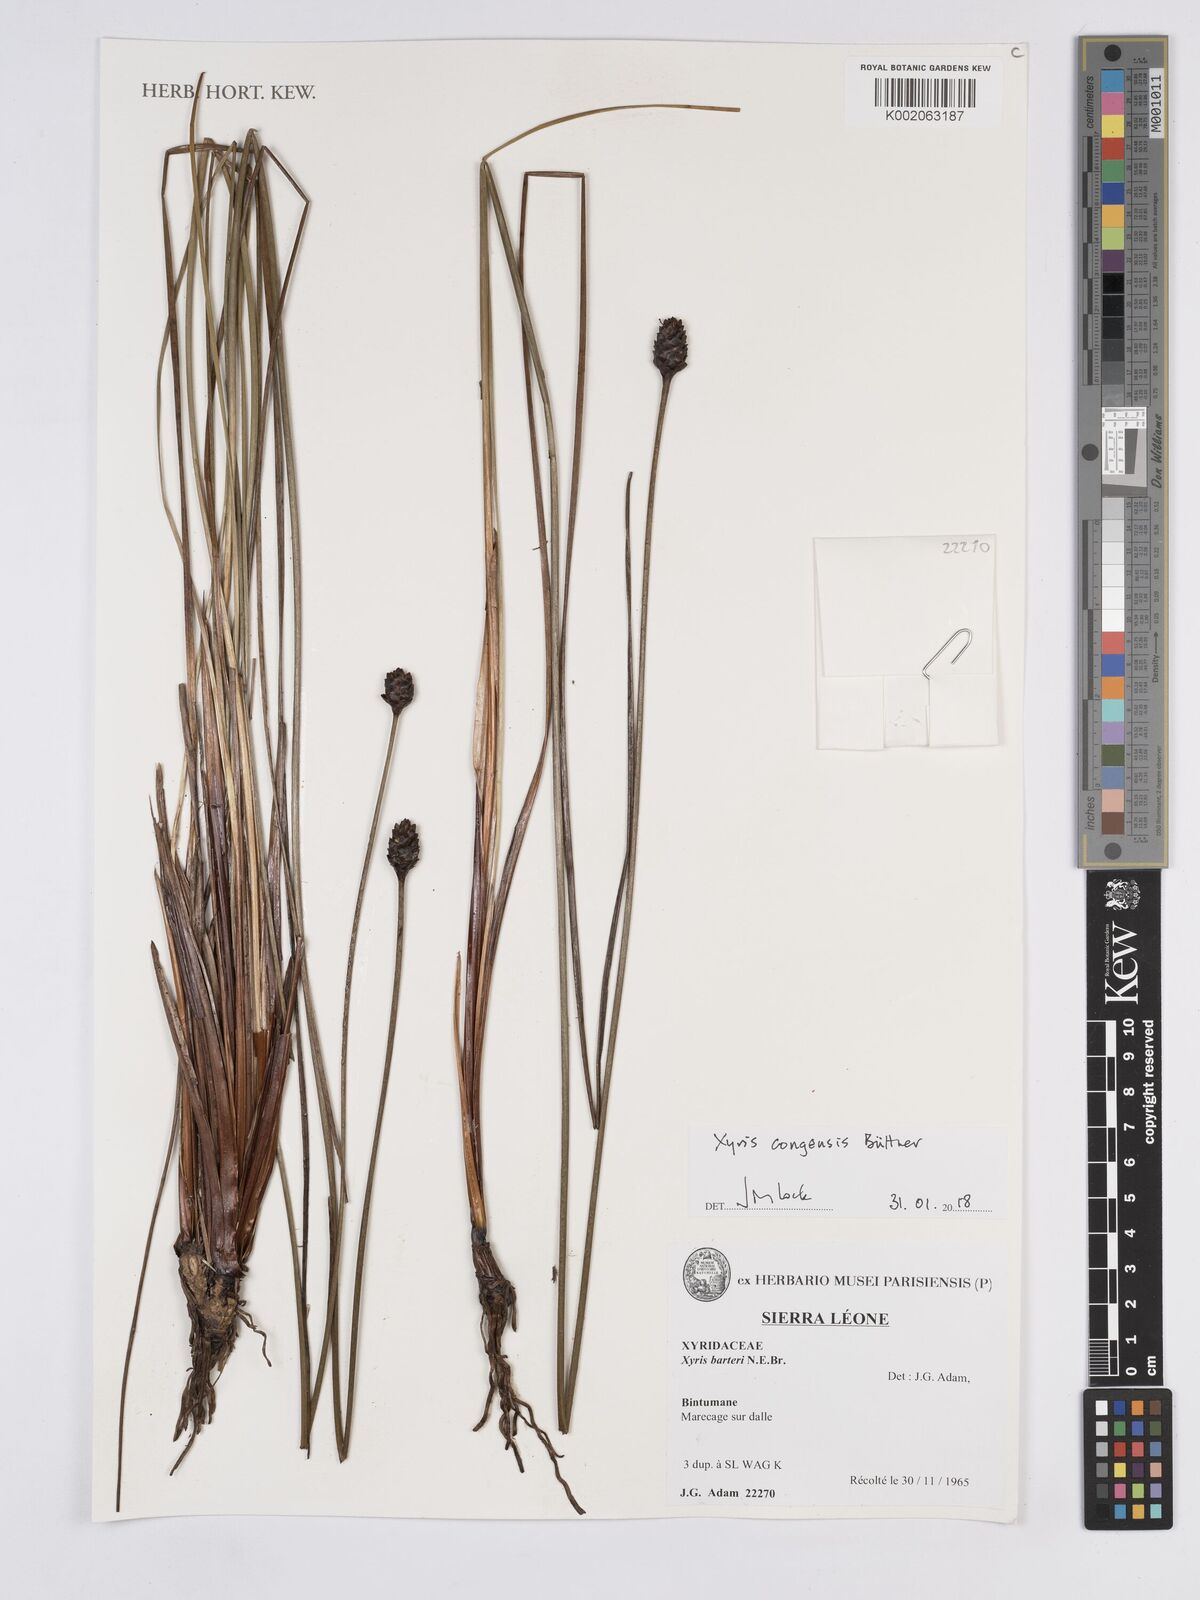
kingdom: Plantae
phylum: Tracheophyta
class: Liliopsida
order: Poales
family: Xyridaceae
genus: Xyris
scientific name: Xyris congensis
